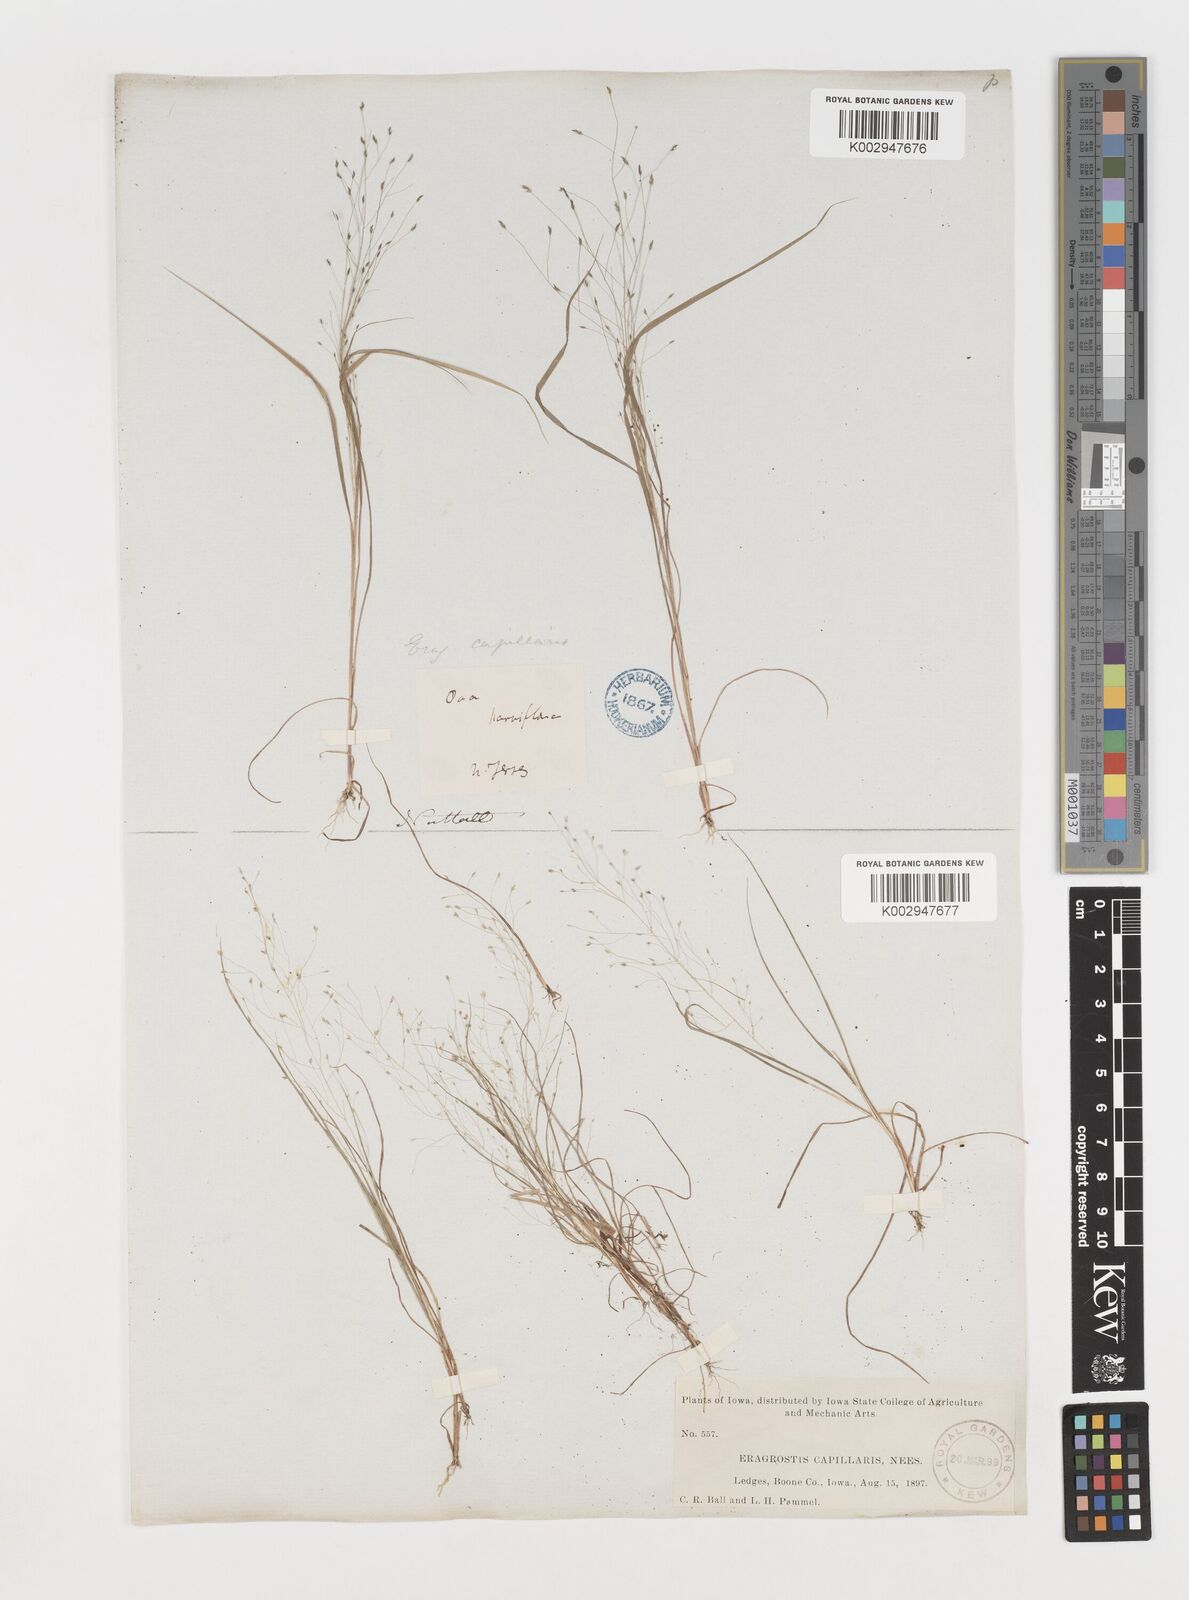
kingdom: Plantae
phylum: Tracheophyta
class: Liliopsida
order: Poales
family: Poaceae
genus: Eragrostis
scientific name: Eragrostis capillaris
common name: Hair-like lovegrass
